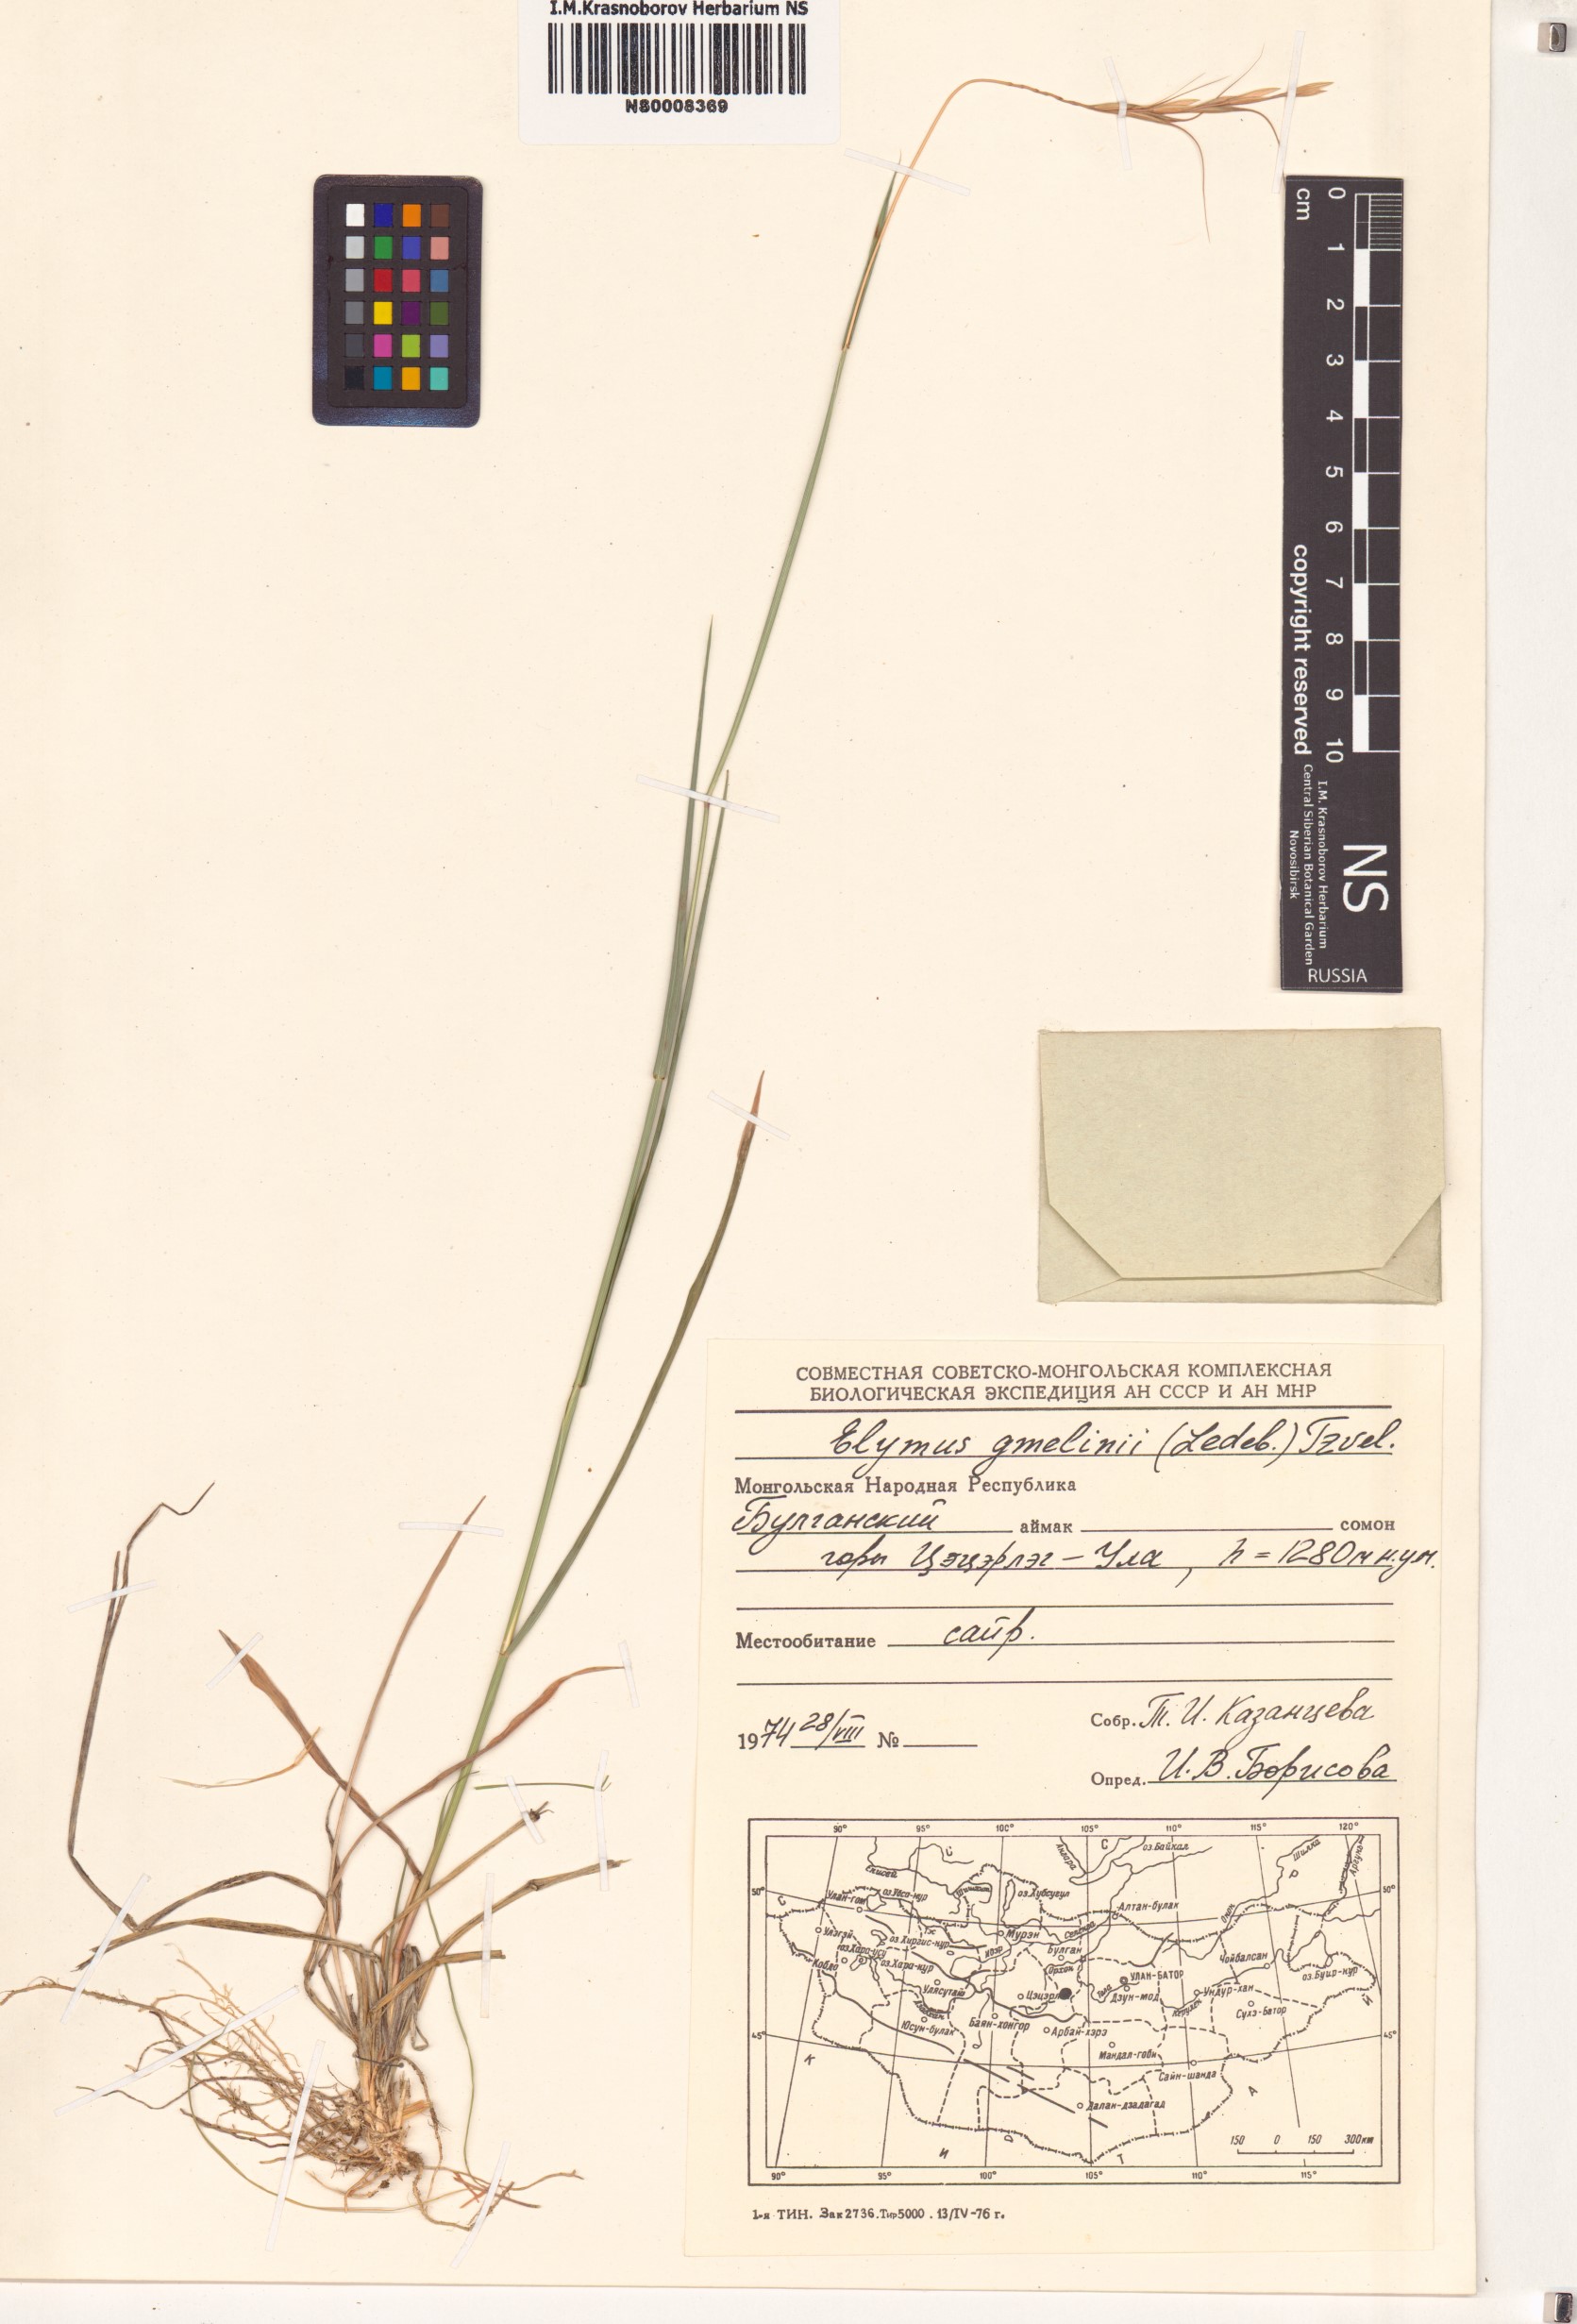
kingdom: Plantae
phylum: Tracheophyta
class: Liliopsida
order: Poales
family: Poaceae
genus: Elymus
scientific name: Elymus gmelinii
